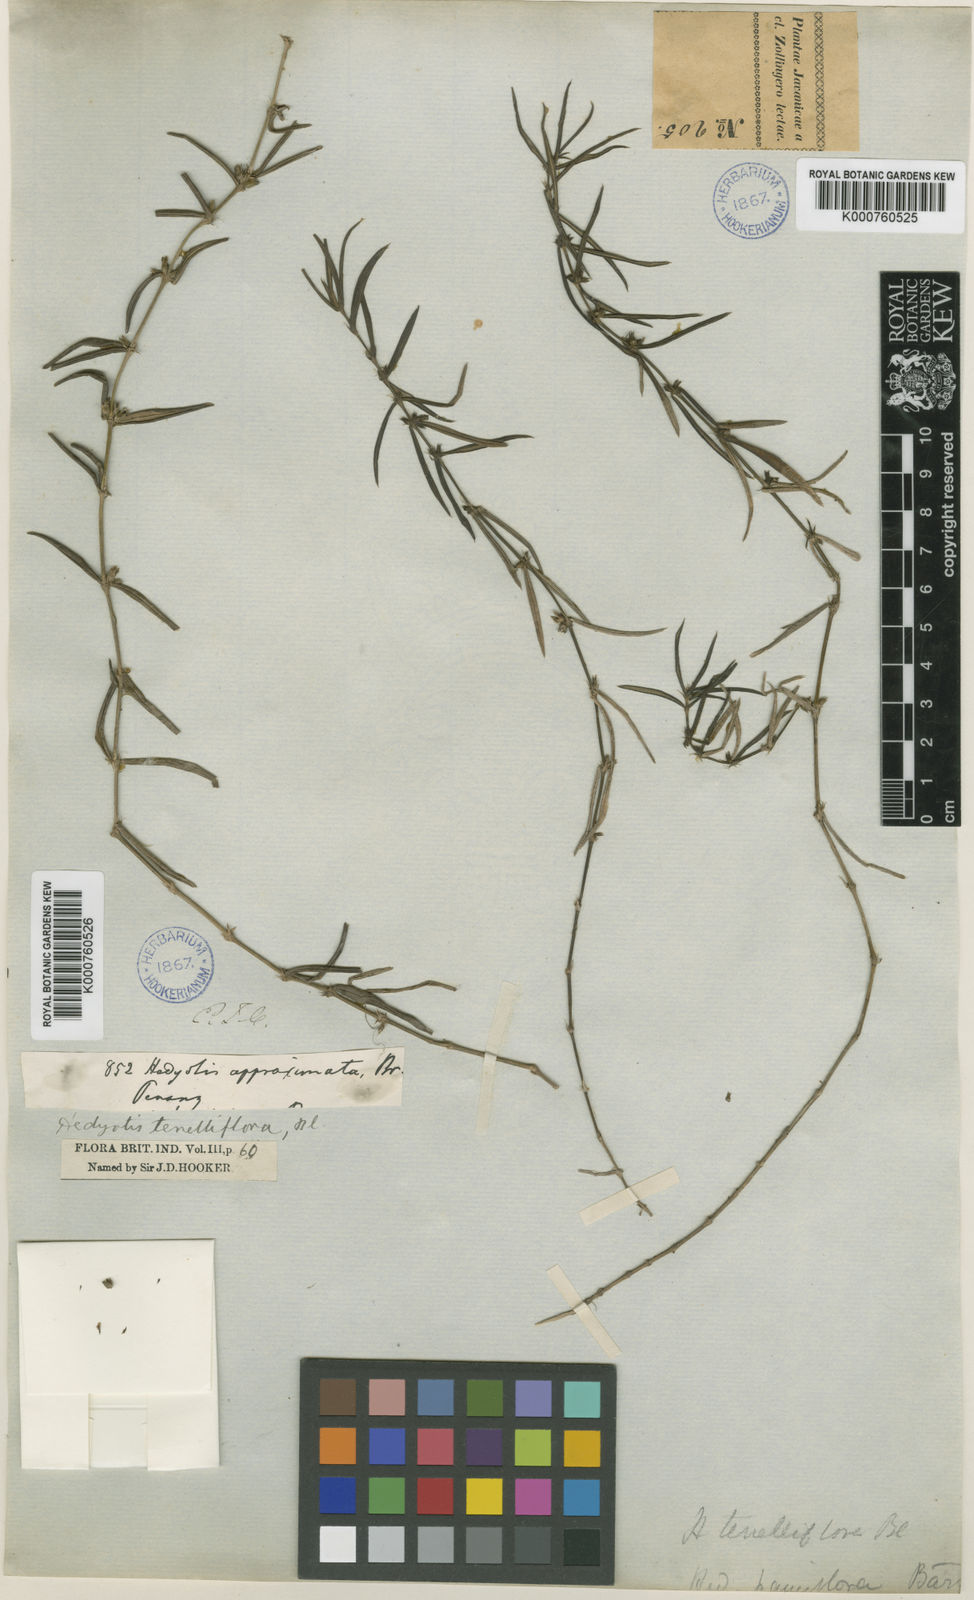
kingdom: Plantae
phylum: Tracheophyta
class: Magnoliopsida
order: Gentianales
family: Rubiaceae
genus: Scleromitrion
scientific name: Scleromitrion tenelliflorum
